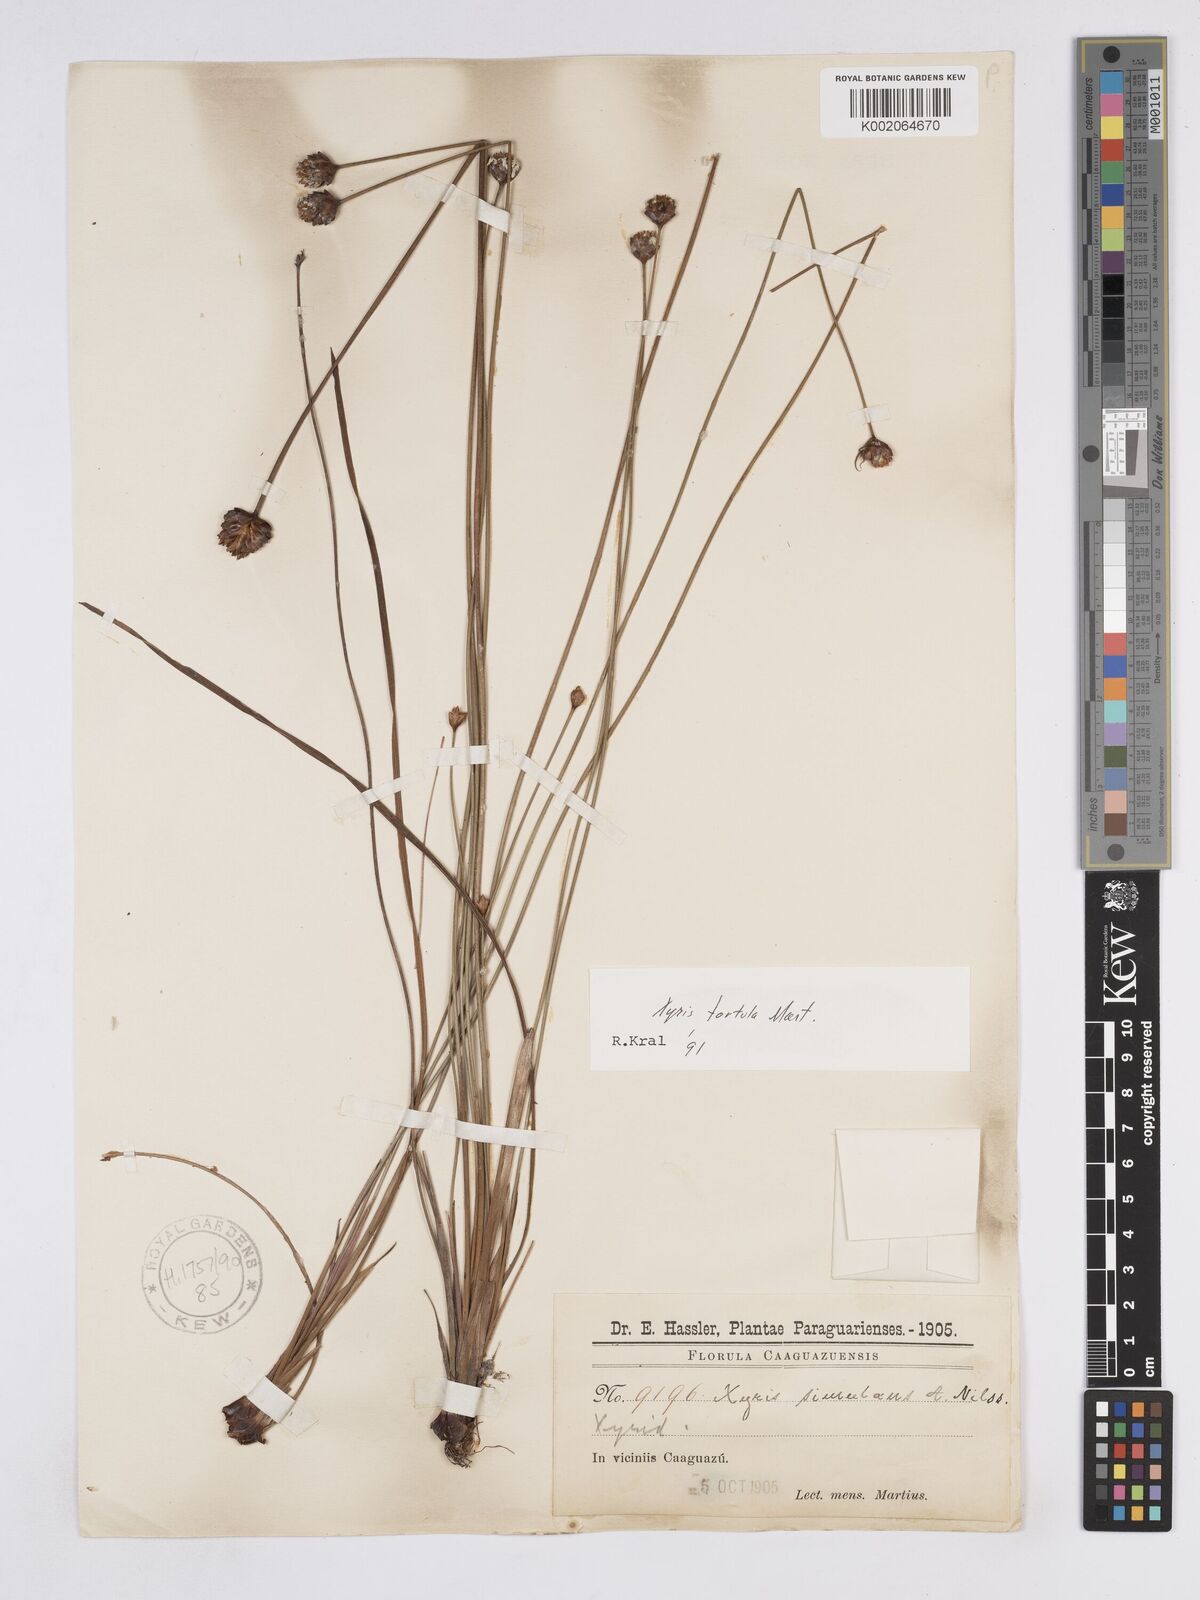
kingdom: Plantae
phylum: Tracheophyta
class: Liliopsida
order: Poales
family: Xyridaceae
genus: Xyris
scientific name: Xyris tortula
